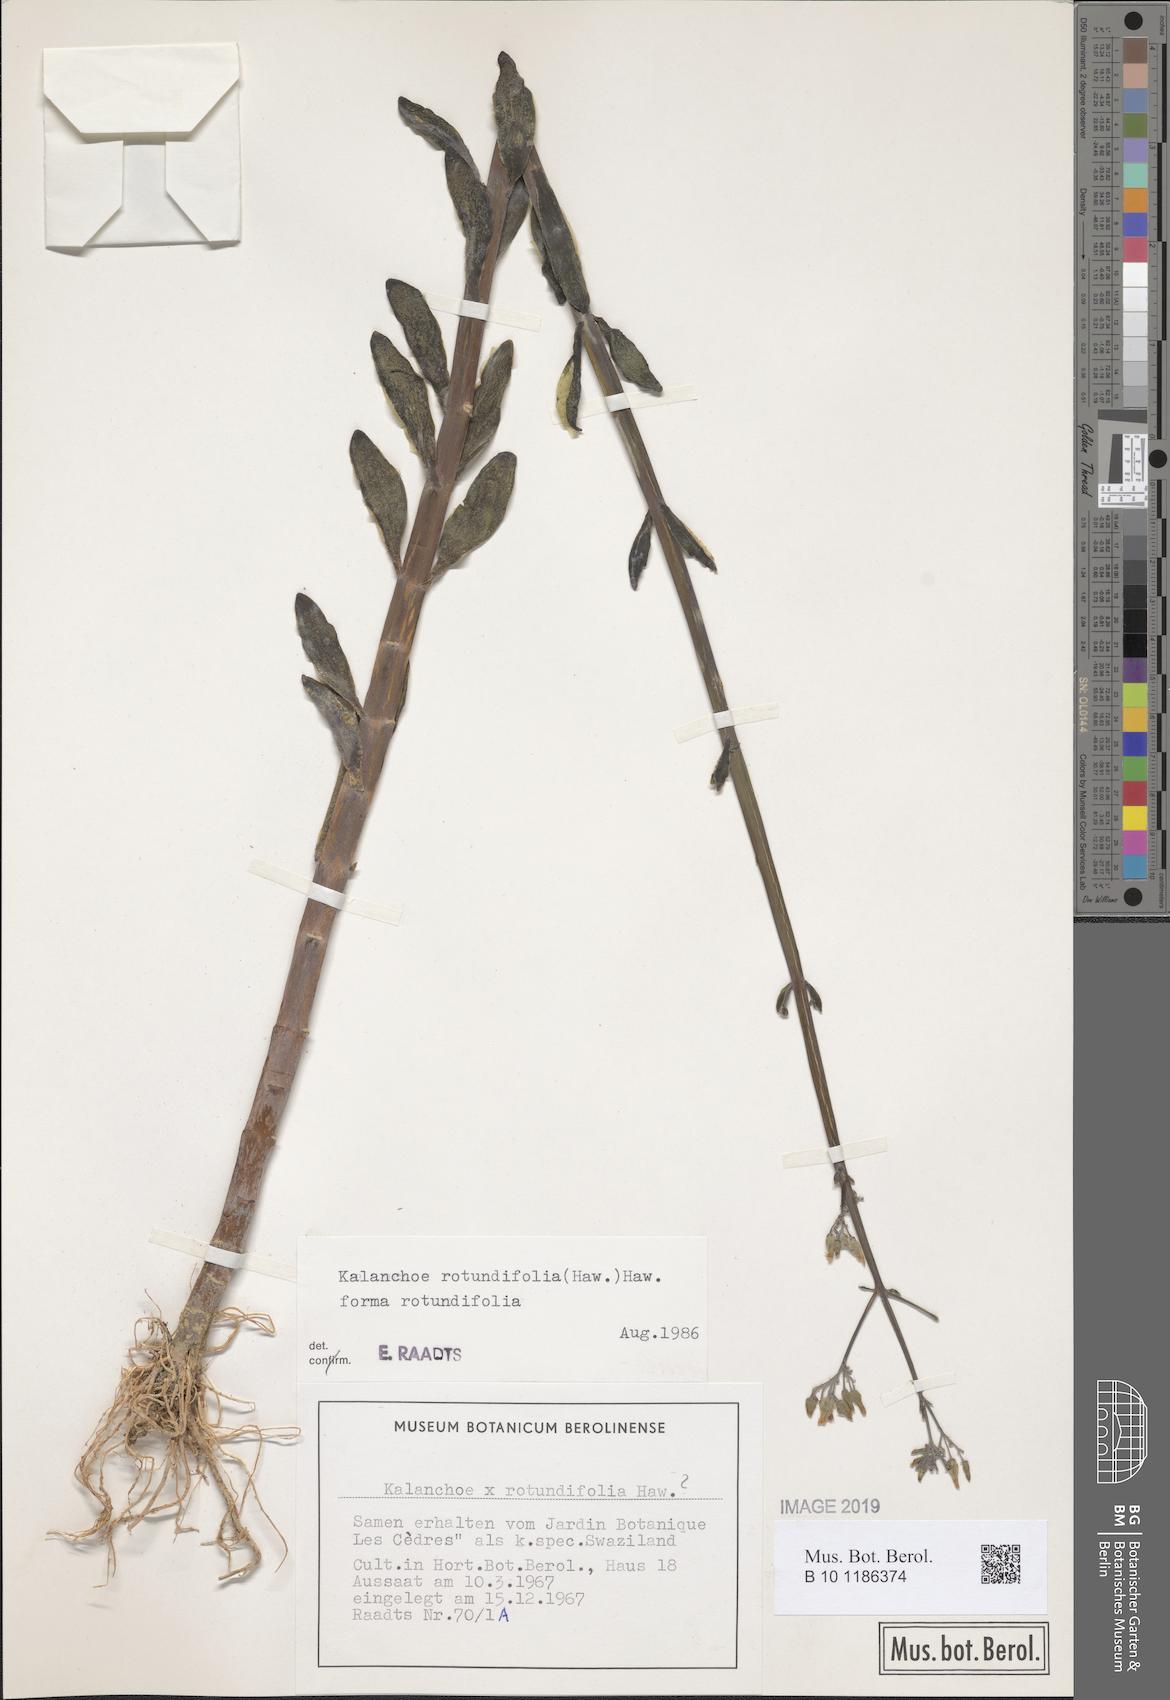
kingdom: Plantae
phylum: Tracheophyta
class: Magnoliopsida
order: Saxifragales
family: Crassulaceae
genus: Kalanchoe
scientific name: Kalanchoe rotundifolia
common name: Common kalanchoe
